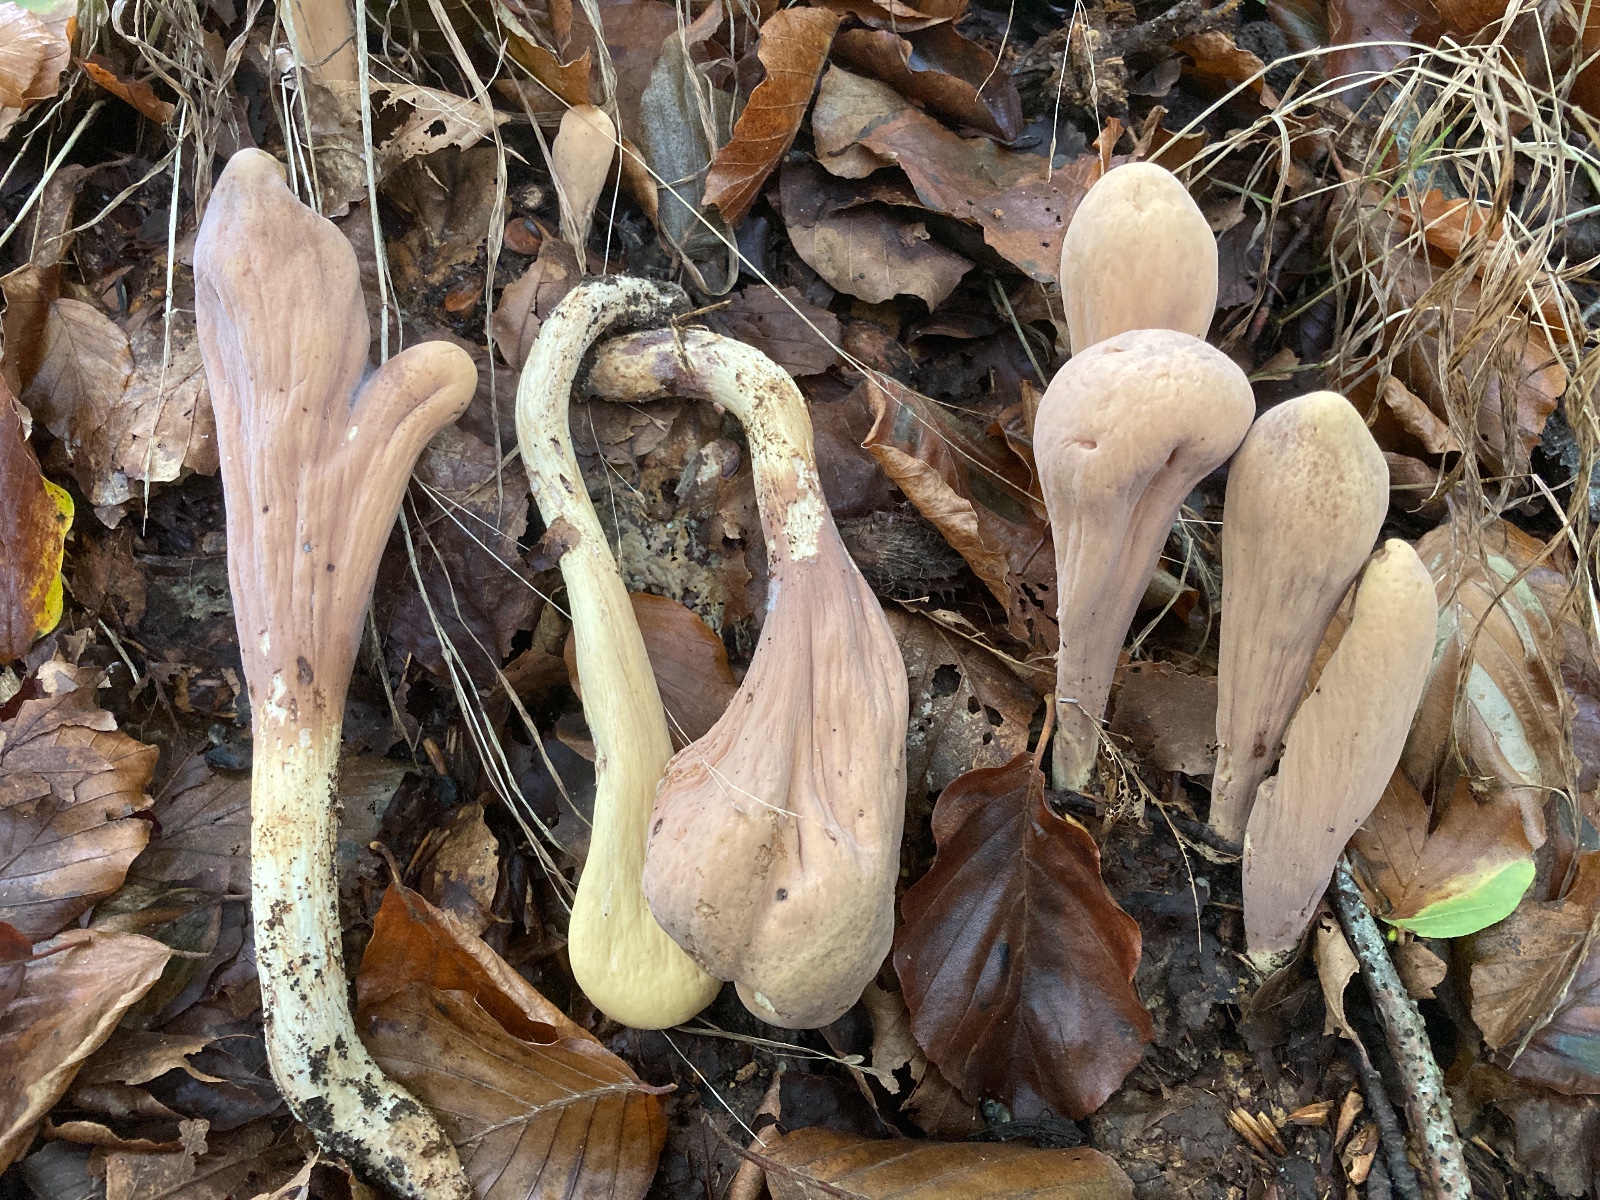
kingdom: Fungi
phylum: Basidiomycota
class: Agaricomycetes
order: Gomphales
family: Clavariadelphaceae
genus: Clavariadelphus
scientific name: Clavariadelphus pistillaris
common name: herkules-kæmpekølle
